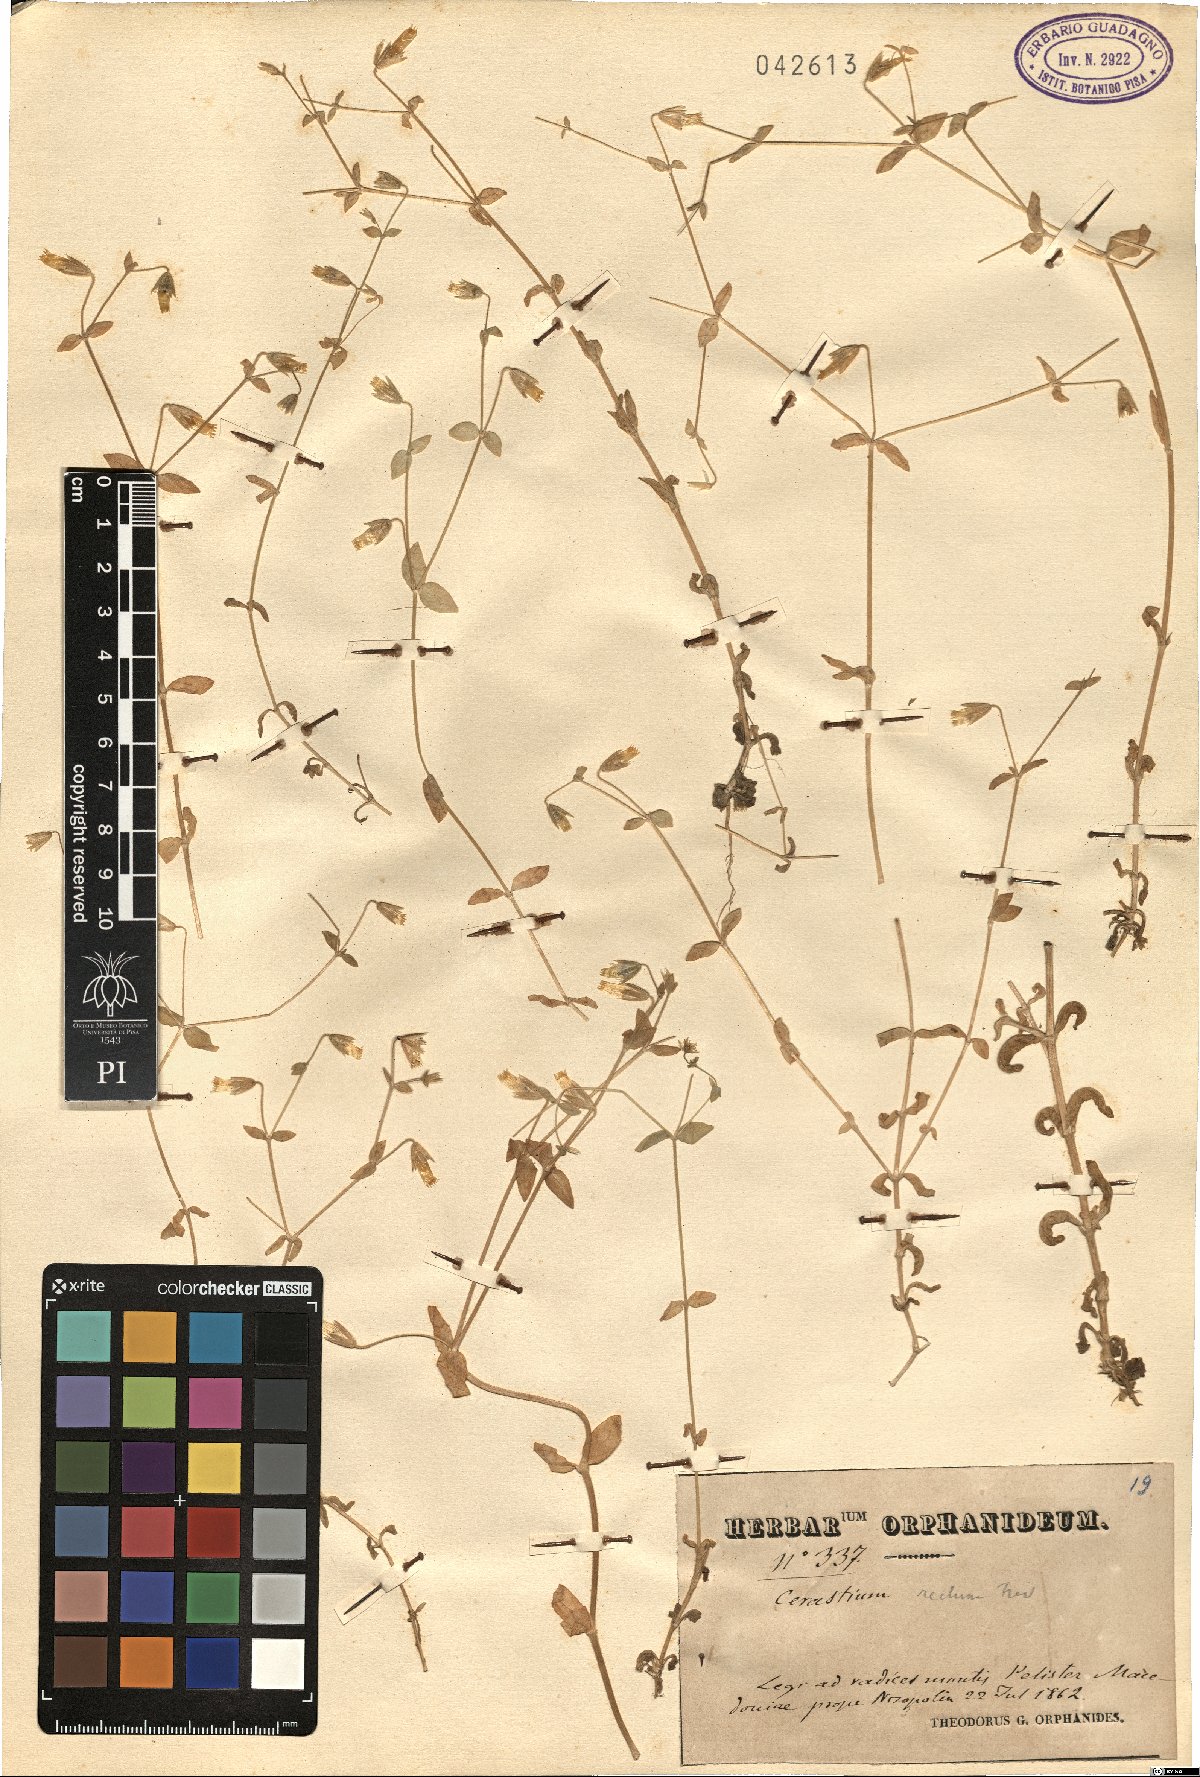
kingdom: Plantae
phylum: Tracheophyta
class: Magnoliopsida
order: Caryophyllales
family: Caryophyllaceae
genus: Cerastium
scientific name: Cerastium rectum
